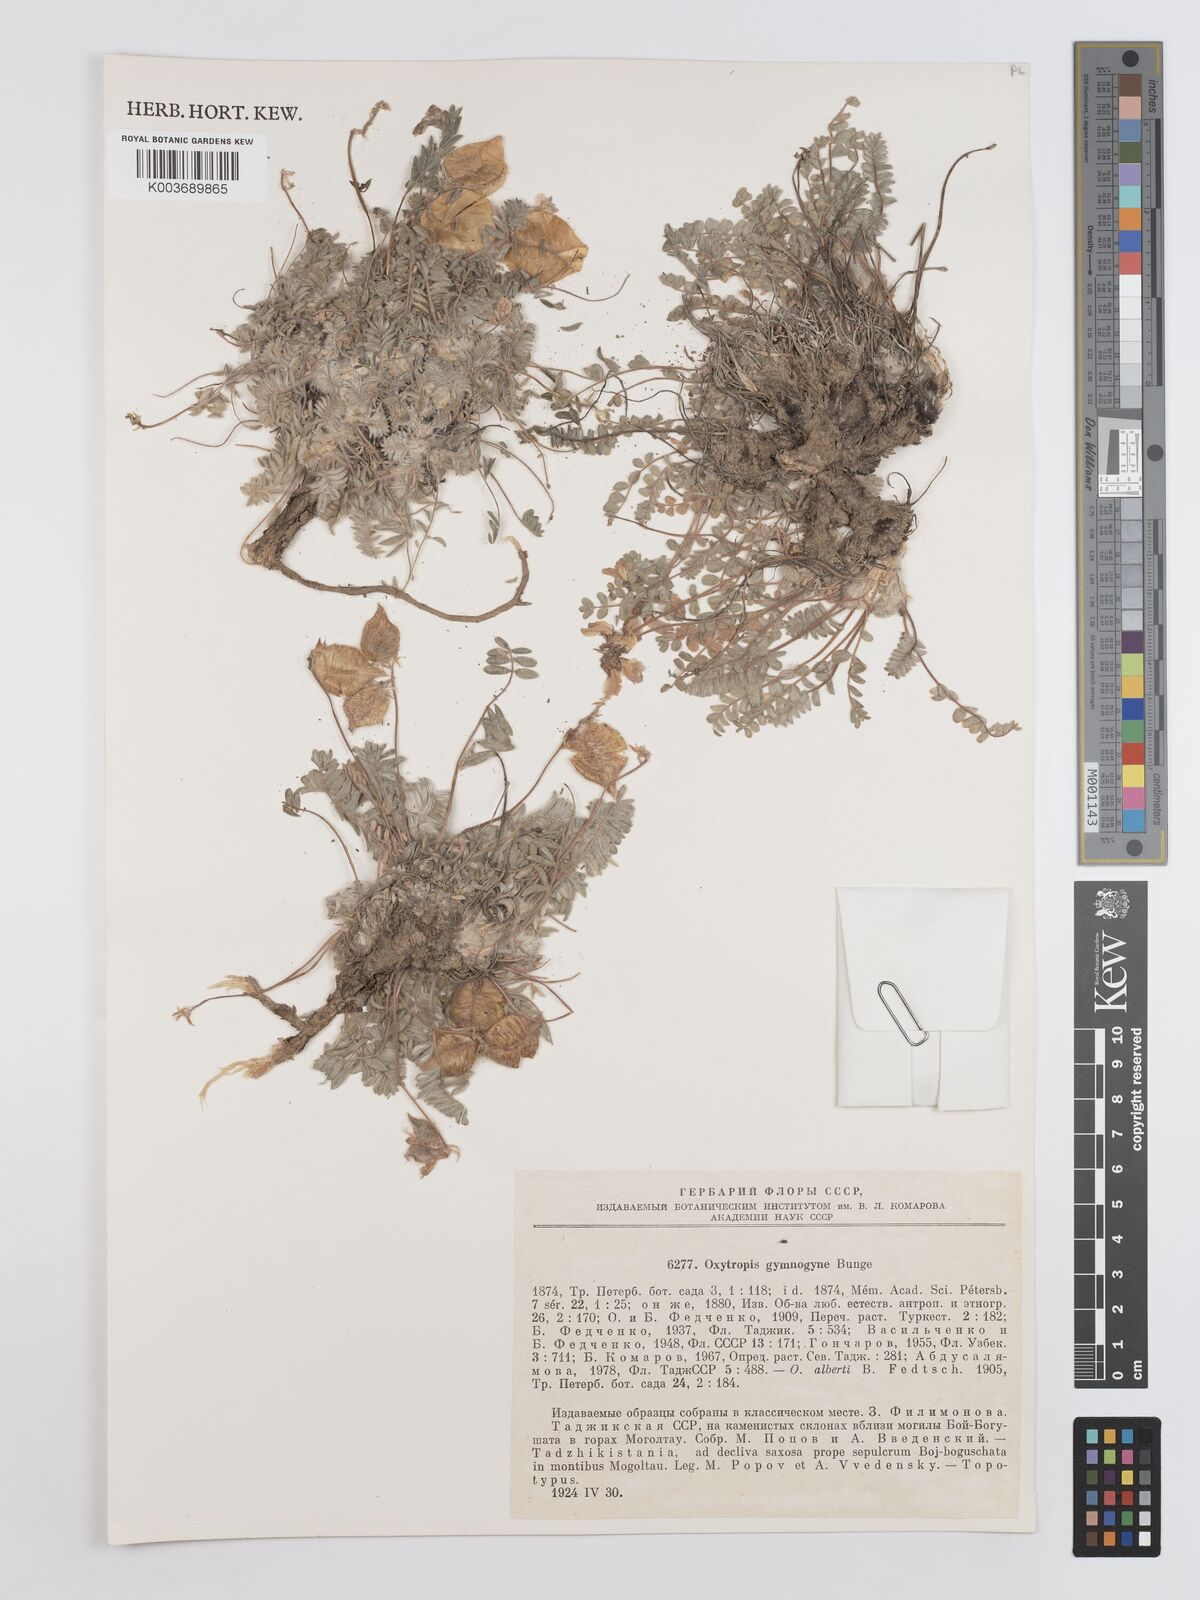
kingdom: Plantae
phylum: Tracheophyta
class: Magnoliopsida
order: Fabales
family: Fabaceae
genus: Oxytropis
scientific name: Oxytropis gymnogyne
